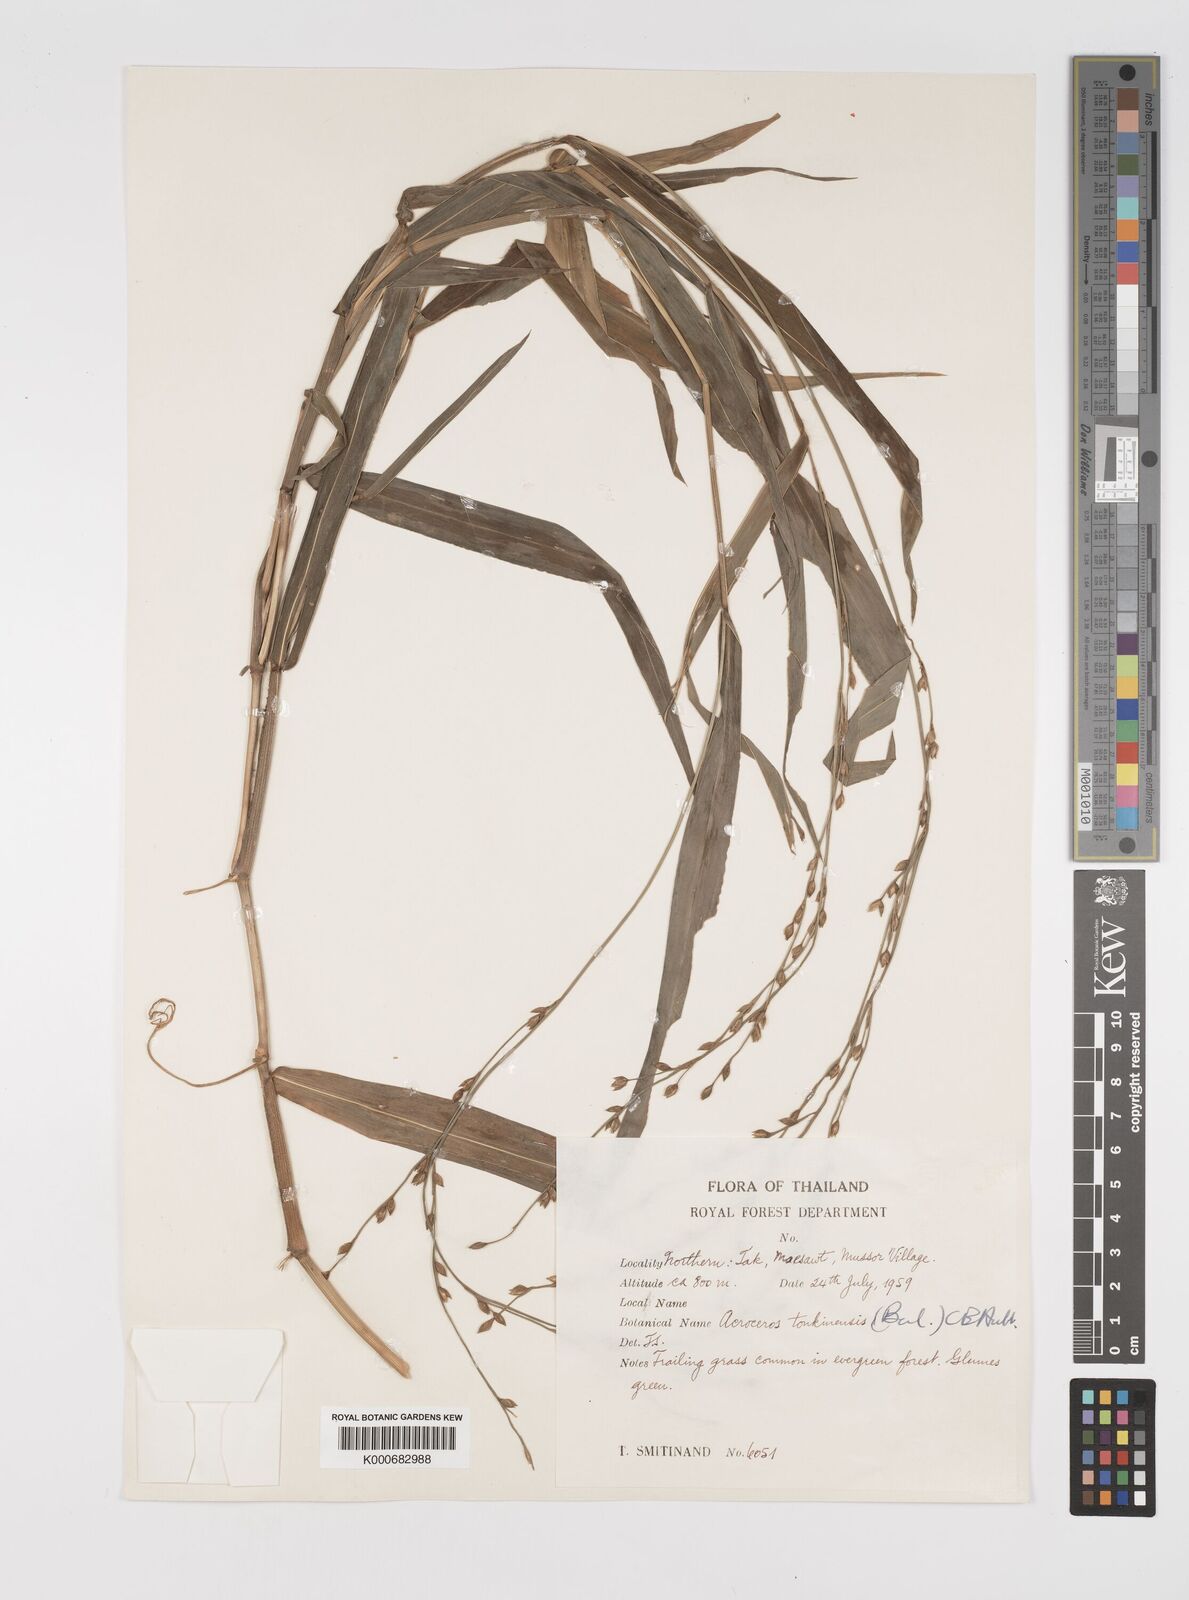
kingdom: Plantae
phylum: Tracheophyta
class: Liliopsida
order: Poales
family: Poaceae
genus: Acroceras
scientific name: Acroceras
